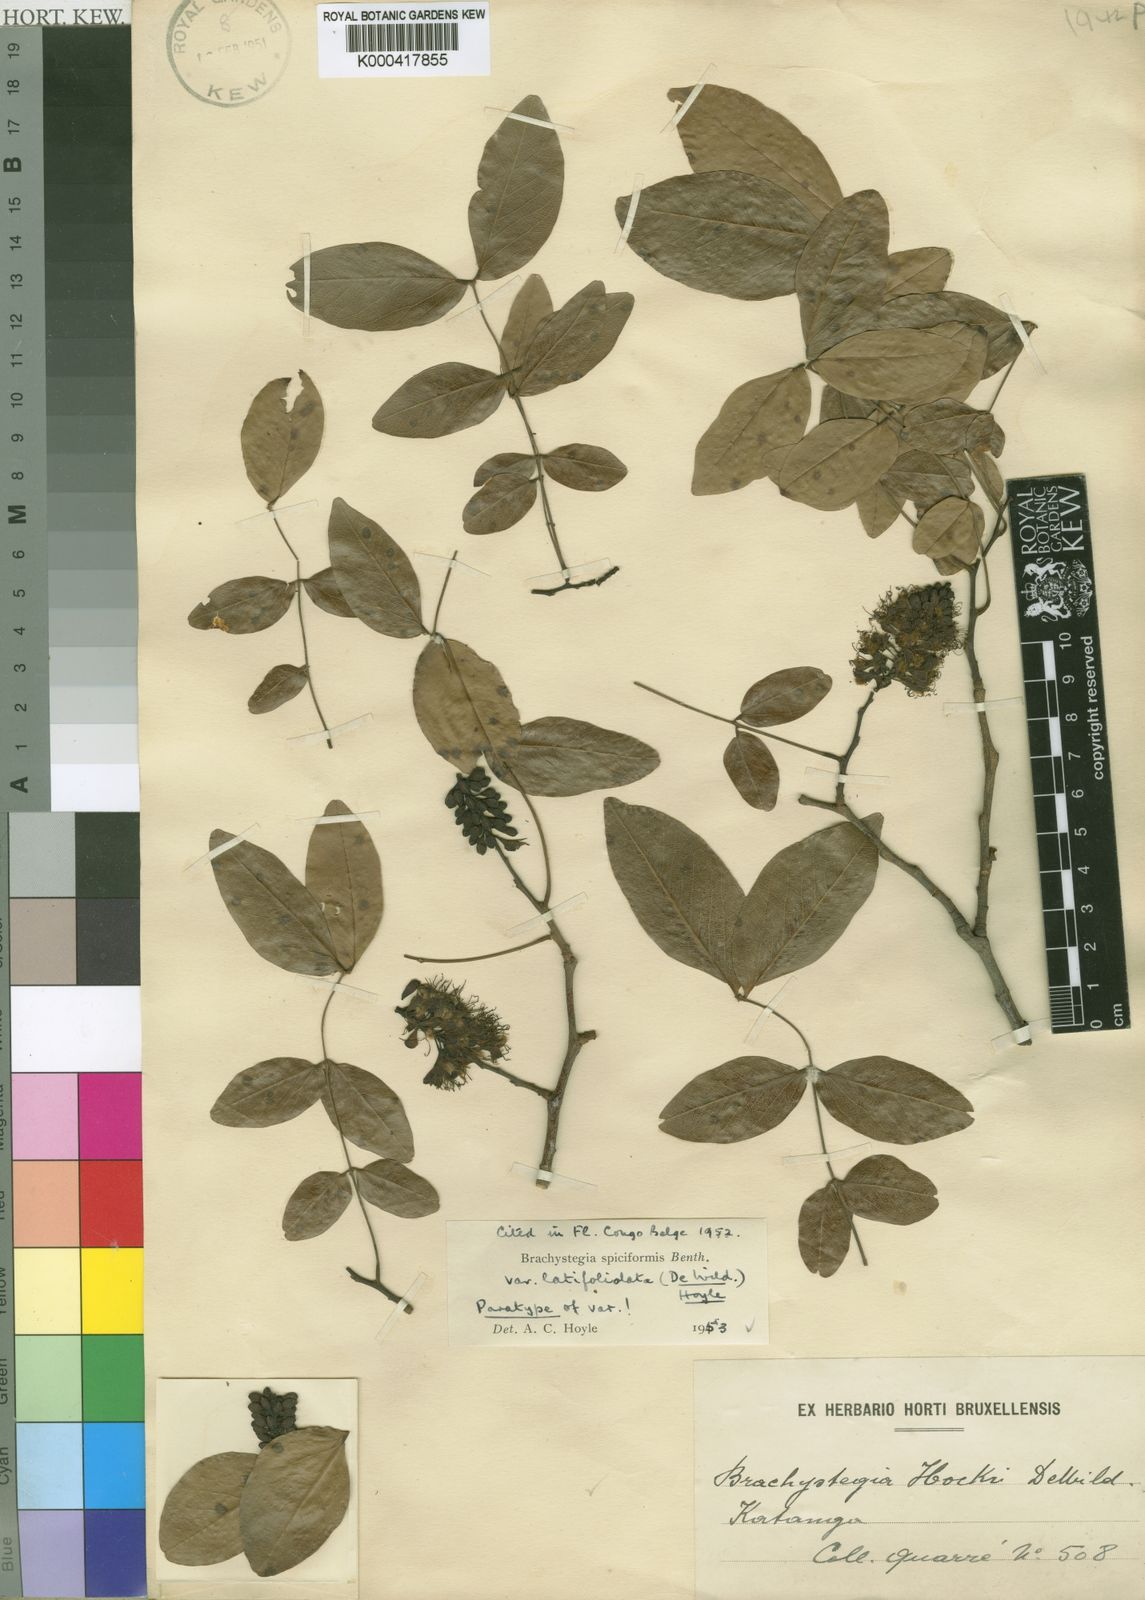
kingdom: Plantae
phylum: Tracheophyta
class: Magnoliopsida
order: Fabales
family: Fabaceae
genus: Brachystegia
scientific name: Brachystegia spiciformis
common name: Zebrawood
